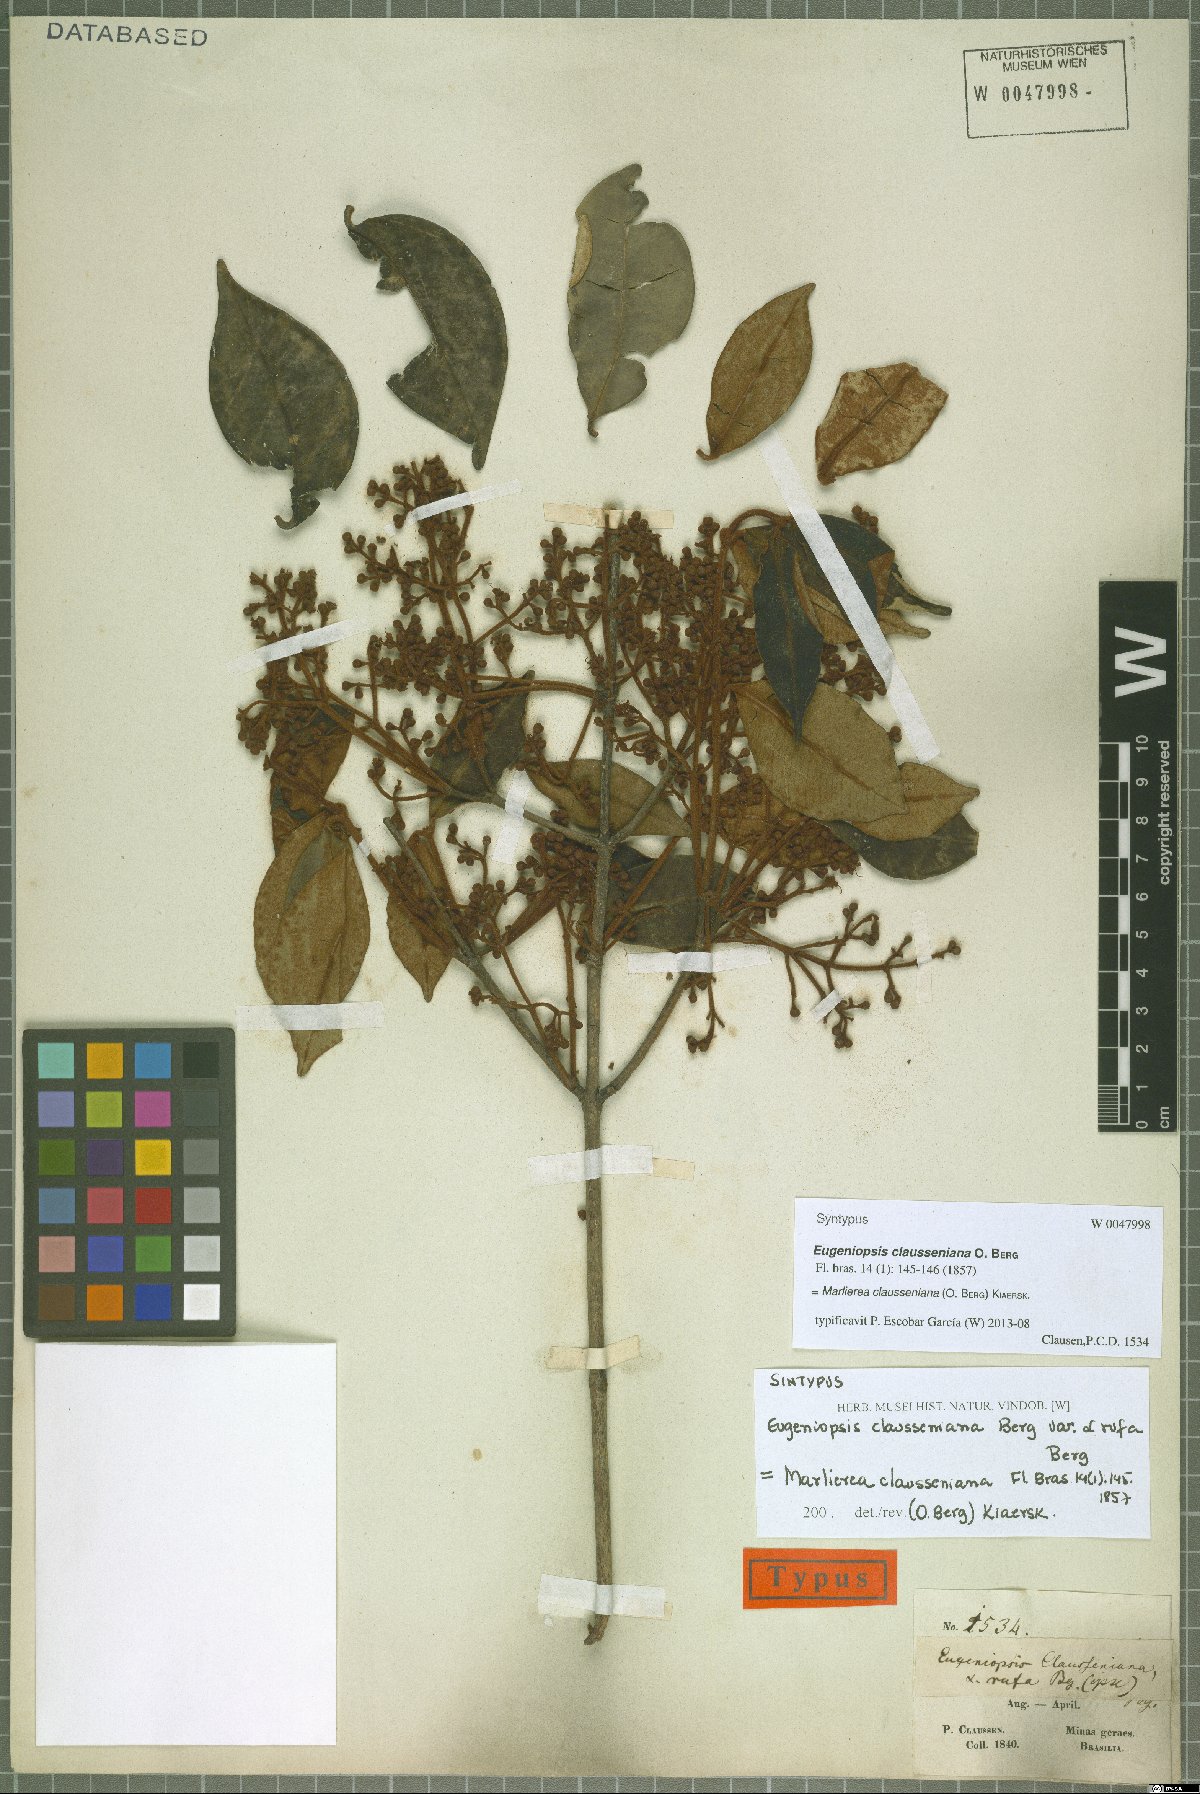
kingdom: Plantae
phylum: Tracheophyta
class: Magnoliopsida
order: Myrtales
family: Myrtaceae
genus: Marlierea
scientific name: Marlierea clausseniana
